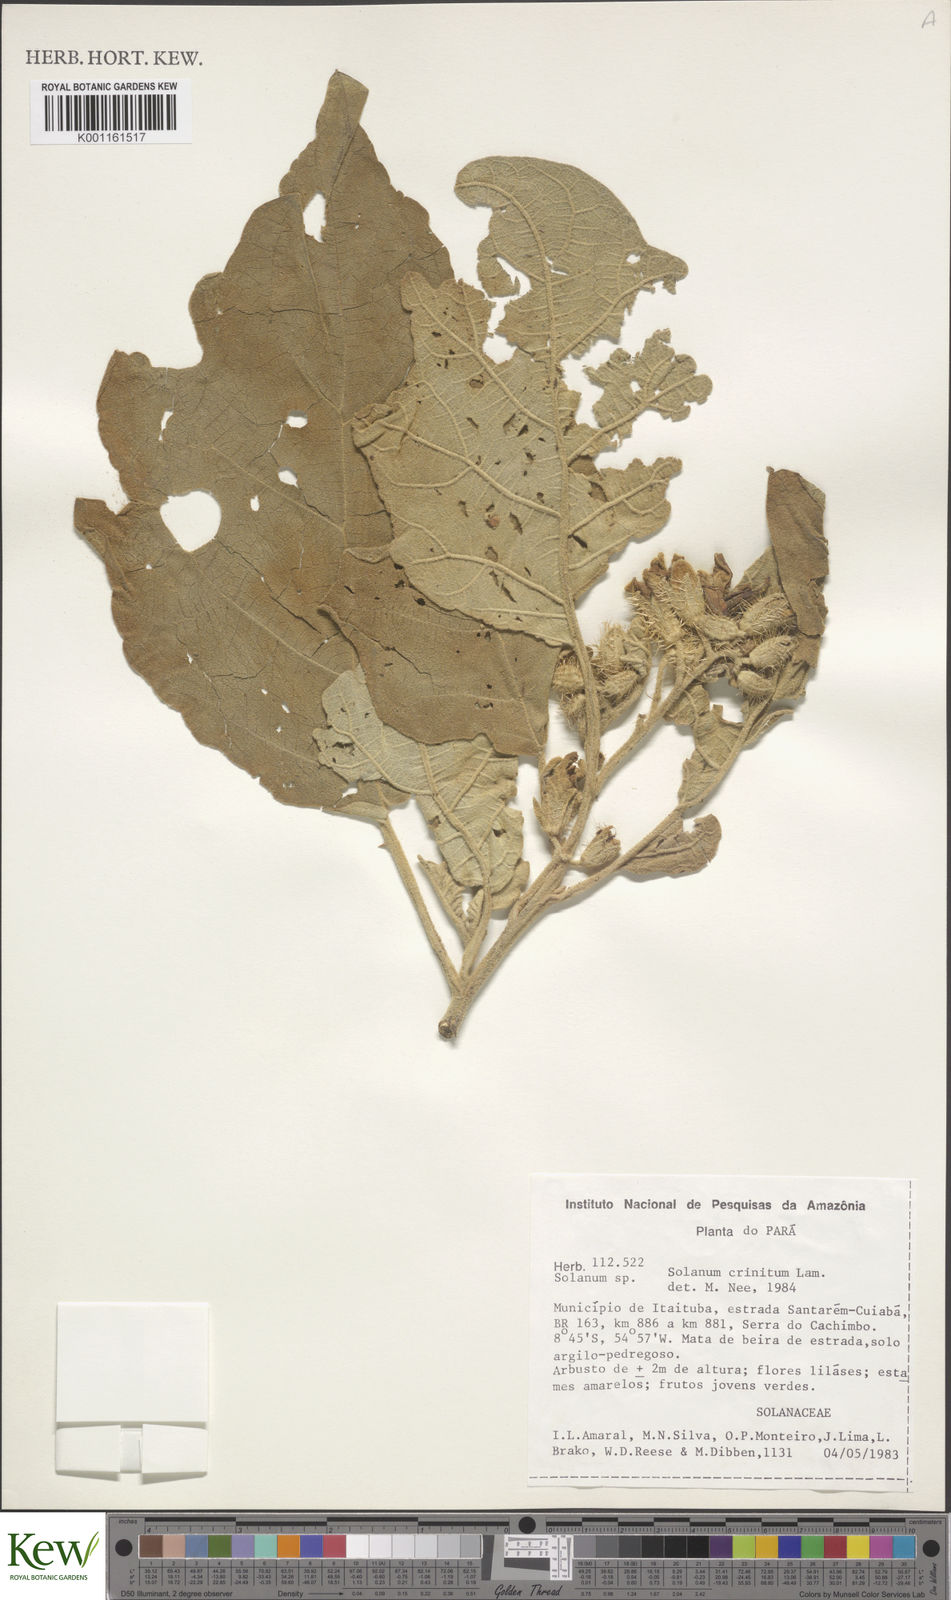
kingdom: Plantae
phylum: Tracheophyta
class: Magnoliopsida
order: Solanales
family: Solanaceae
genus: Solanum
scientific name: Solanum crinitum
